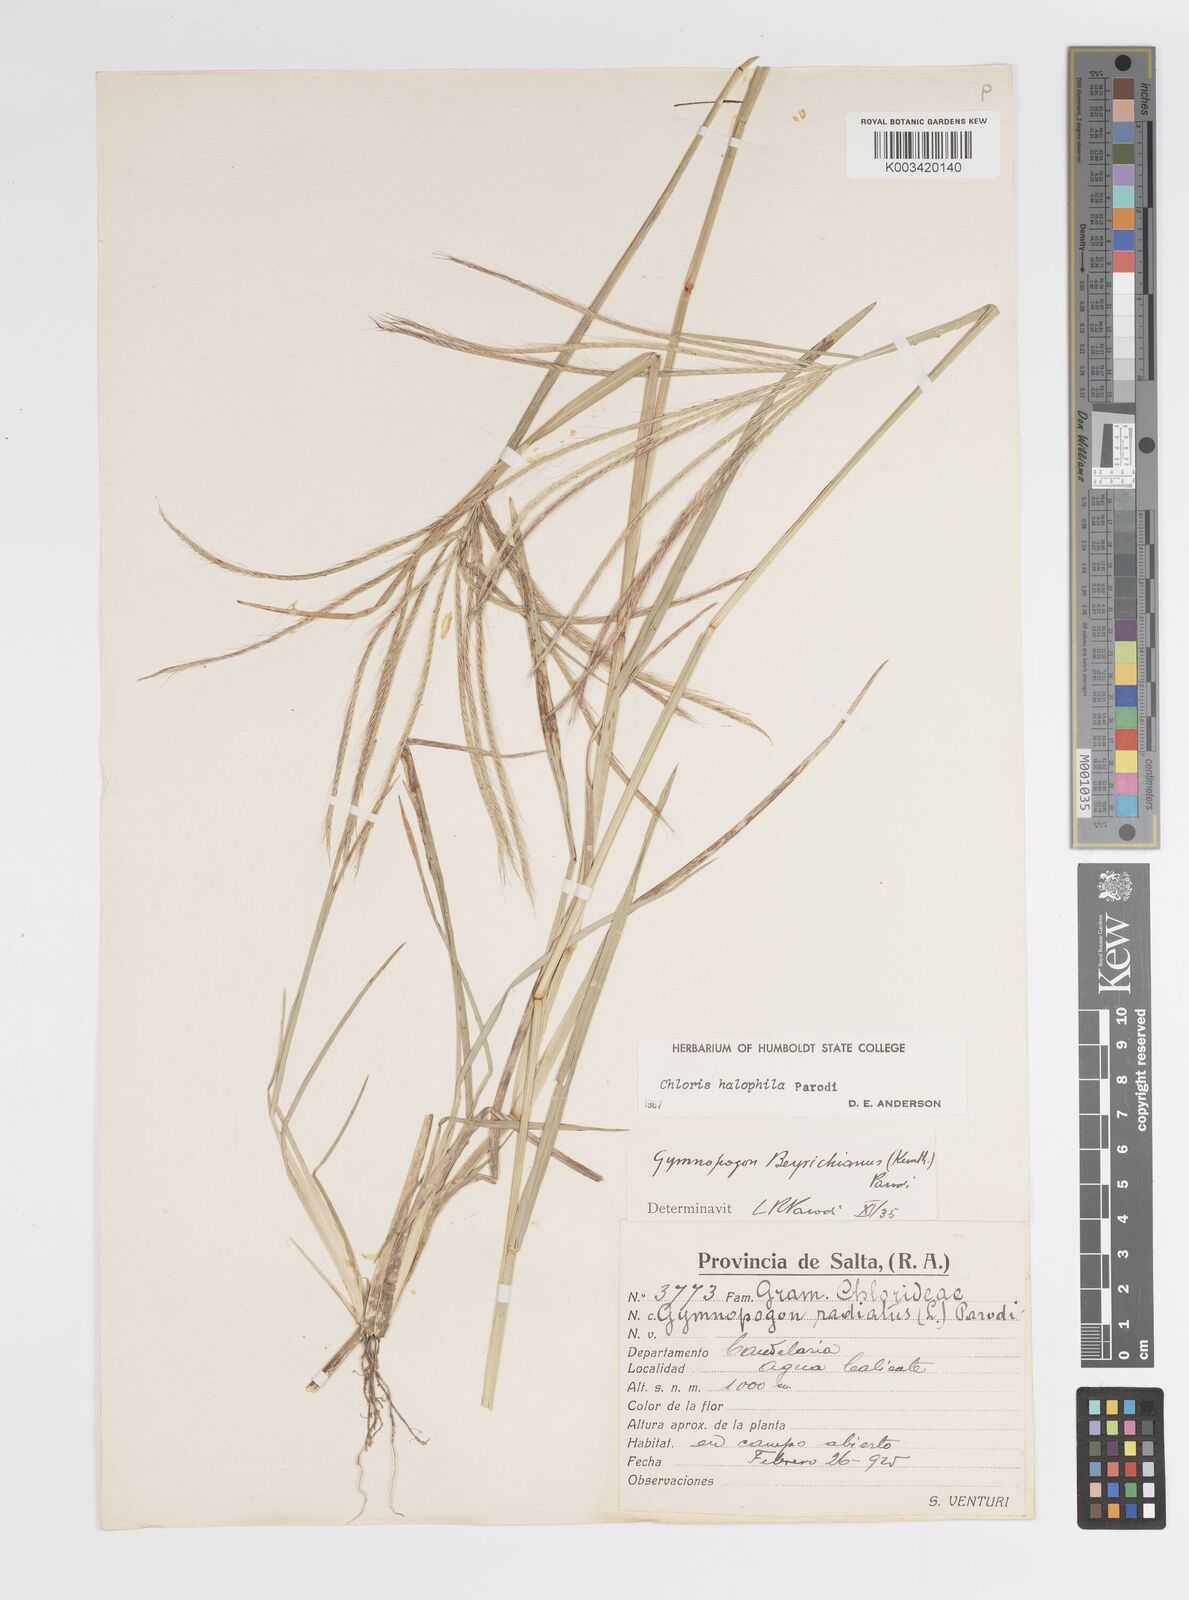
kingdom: Plantae
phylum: Tracheophyta
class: Liliopsida
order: Poales
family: Poaceae
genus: Chloris
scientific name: Chloris halophila
